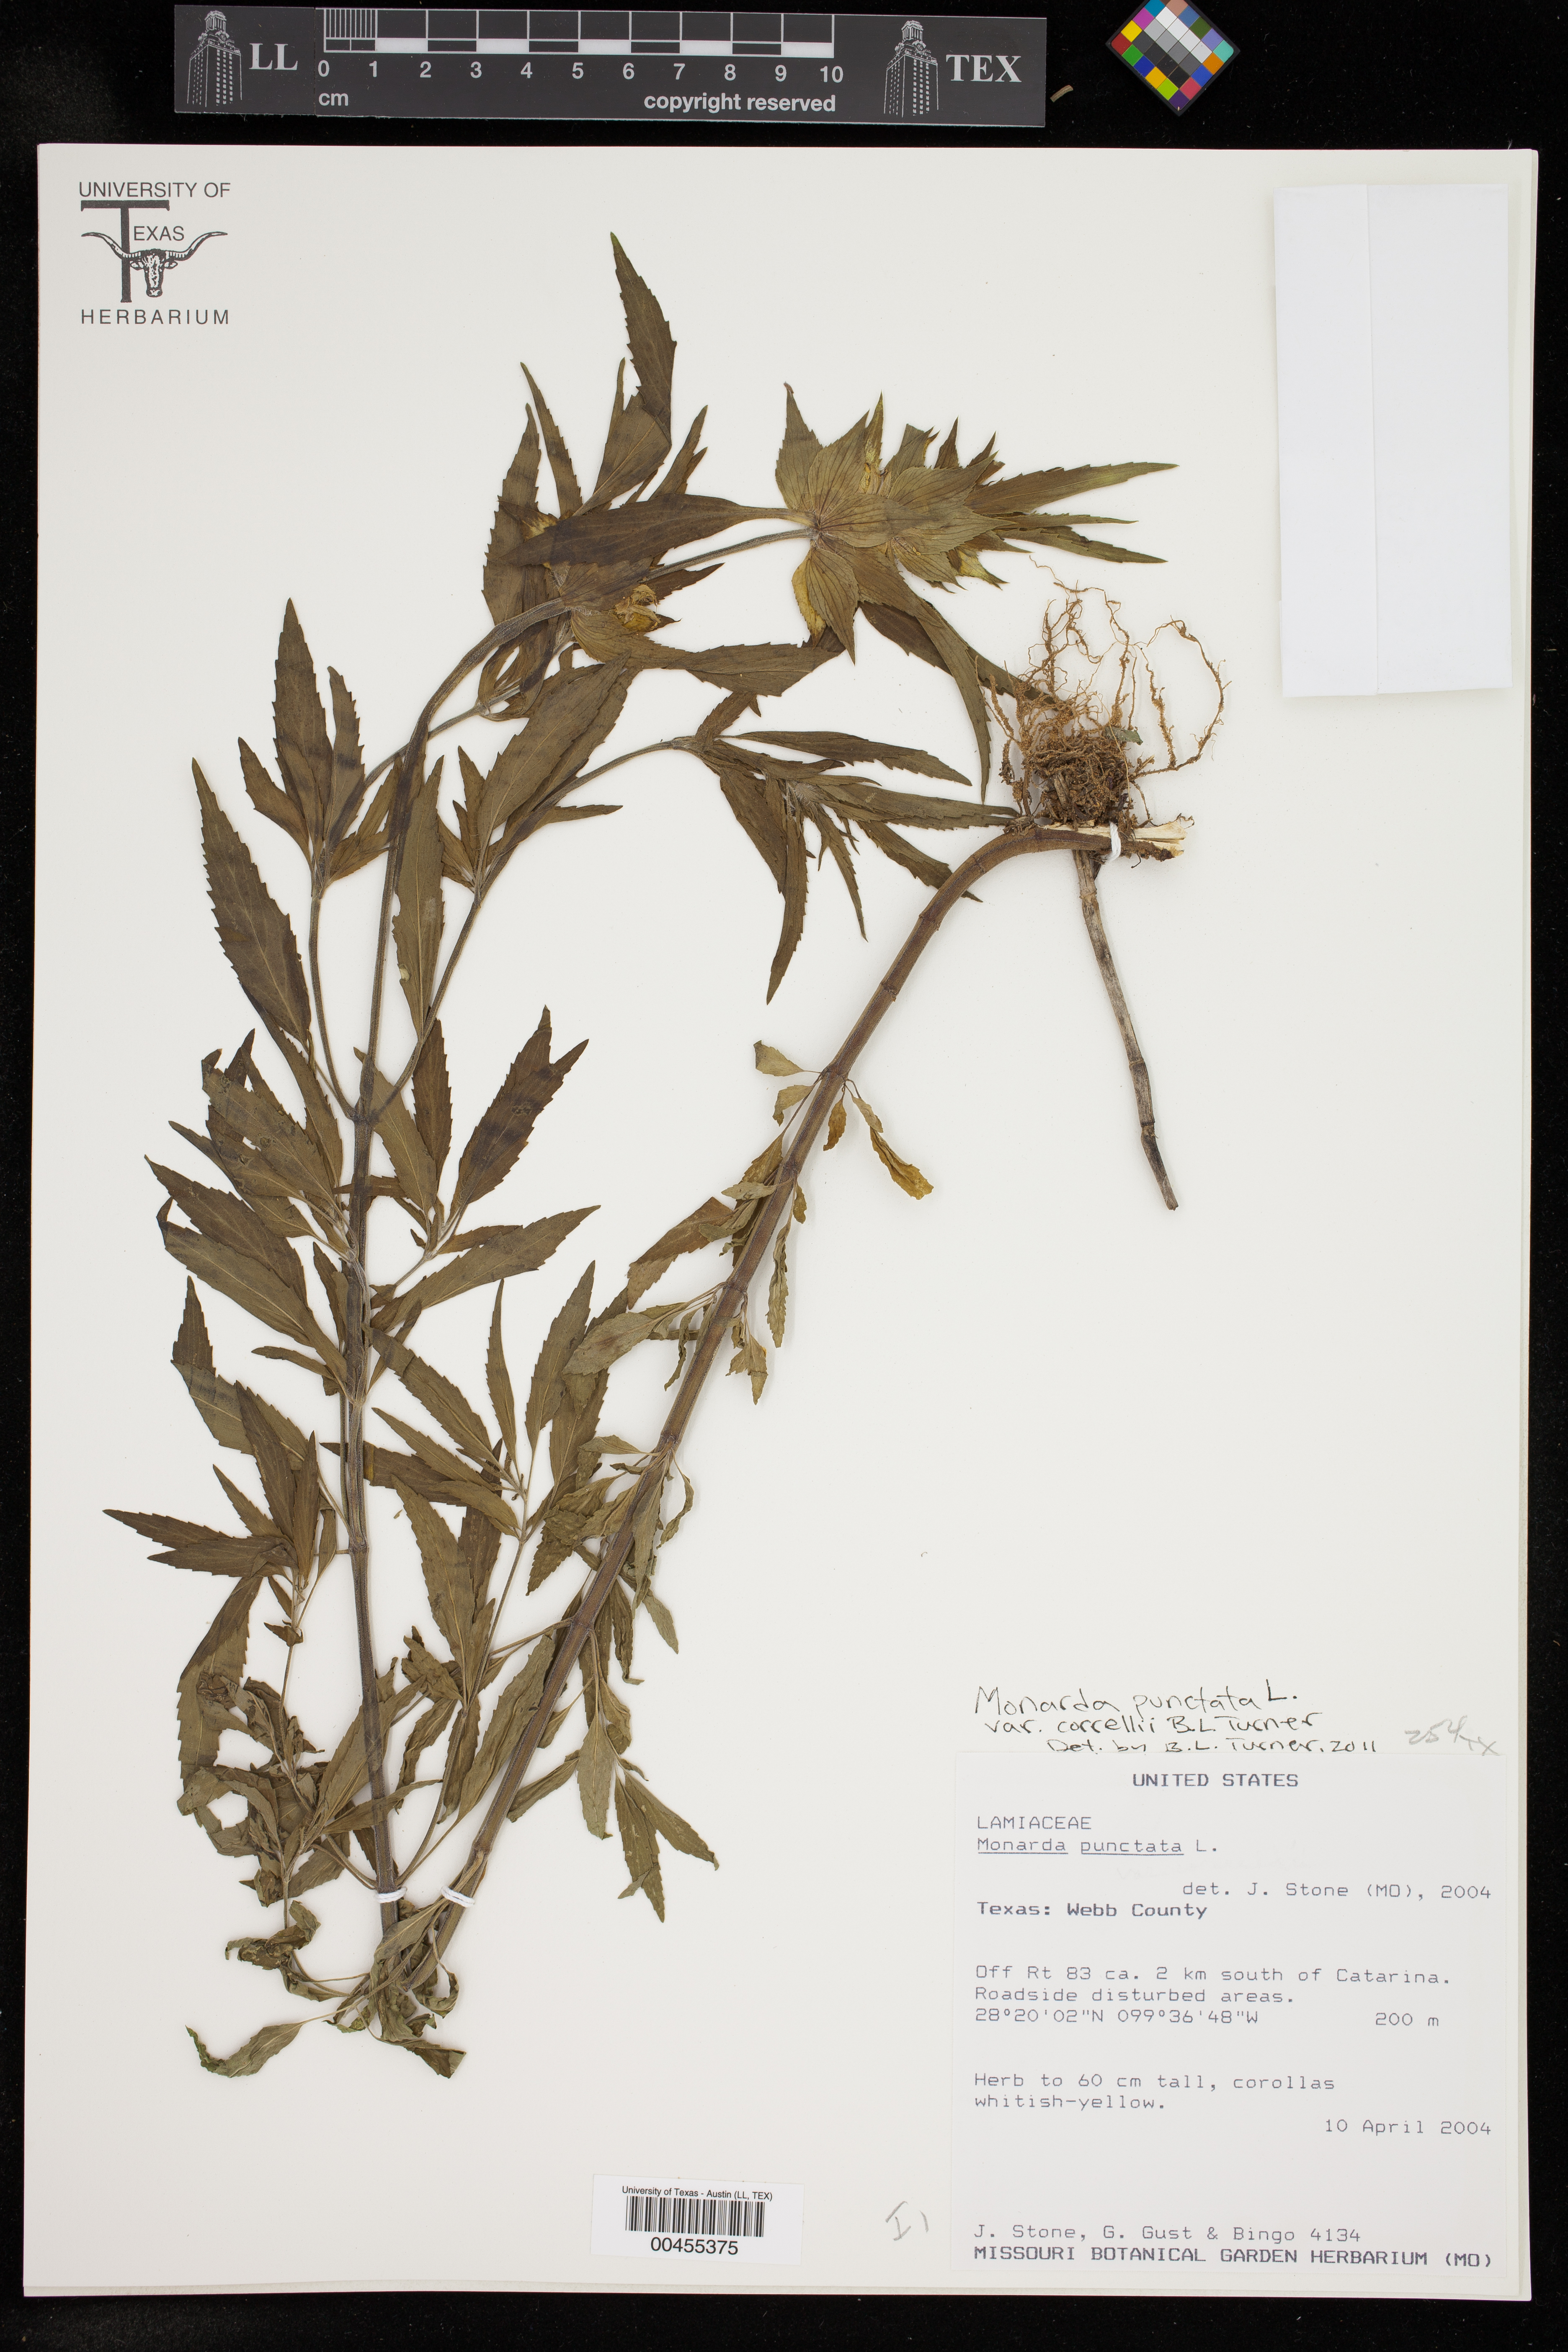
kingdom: Plantae
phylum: Tracheophyta
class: Magnoliopsida
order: Lamiales
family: Lamiaceae
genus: Monarda
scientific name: Monarda punctata
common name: Dotted monarda
